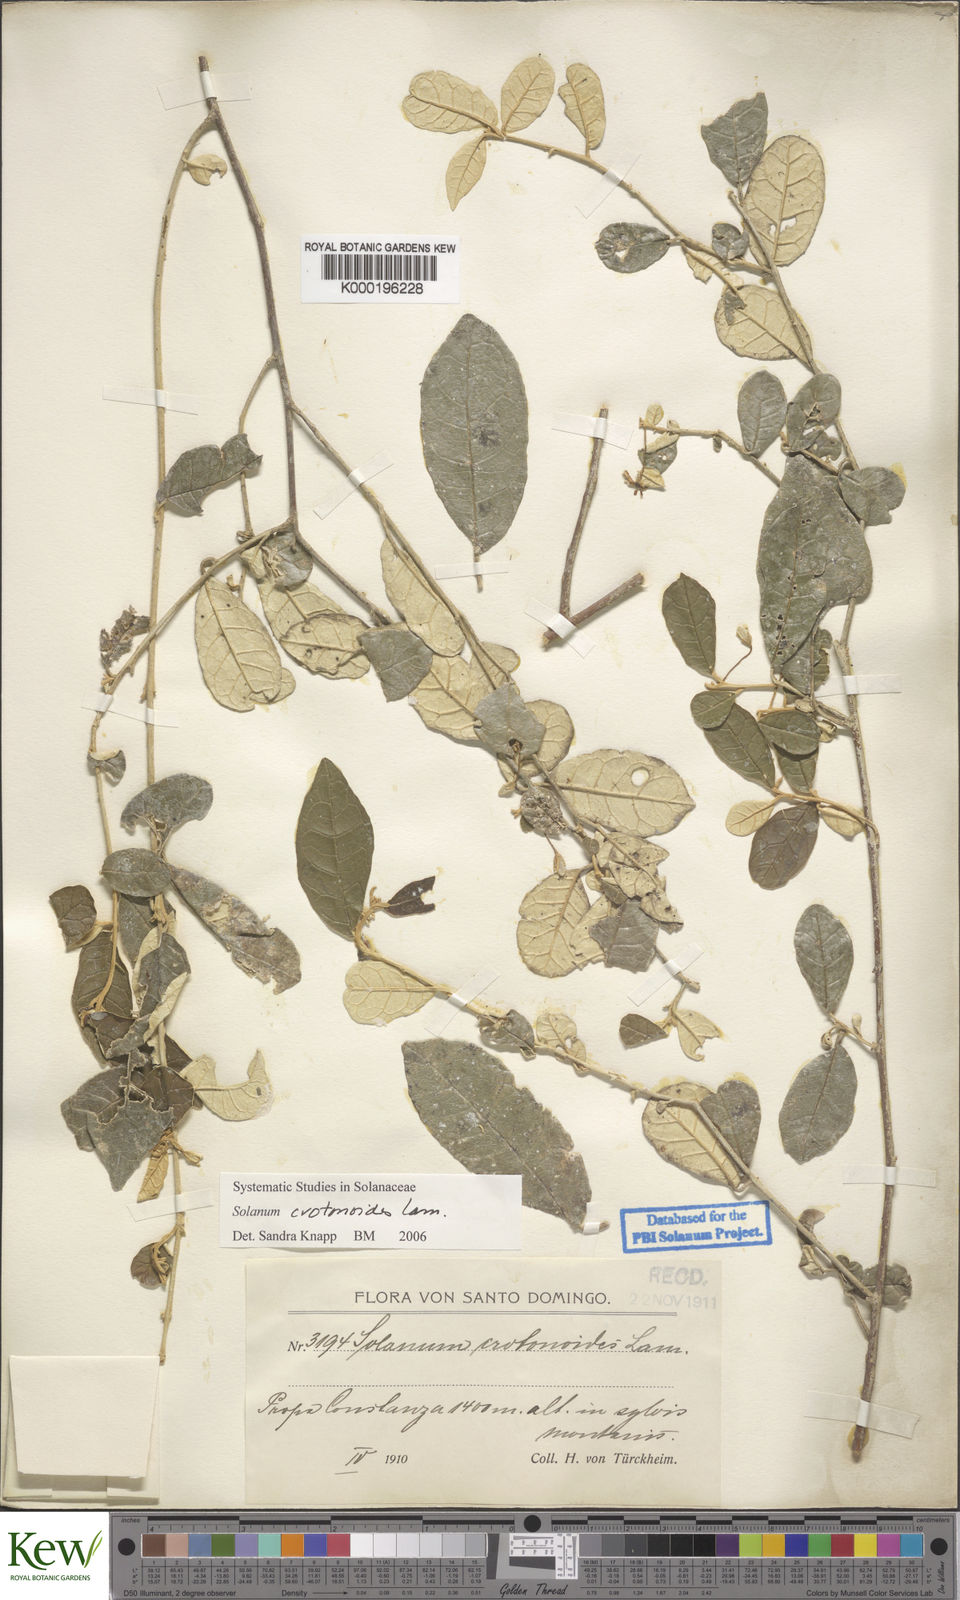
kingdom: Plantae
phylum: Tracheophyta
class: Magnoliopsida
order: Solanales
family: Solanaceae
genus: Solanum
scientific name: Solanum crotonoides
